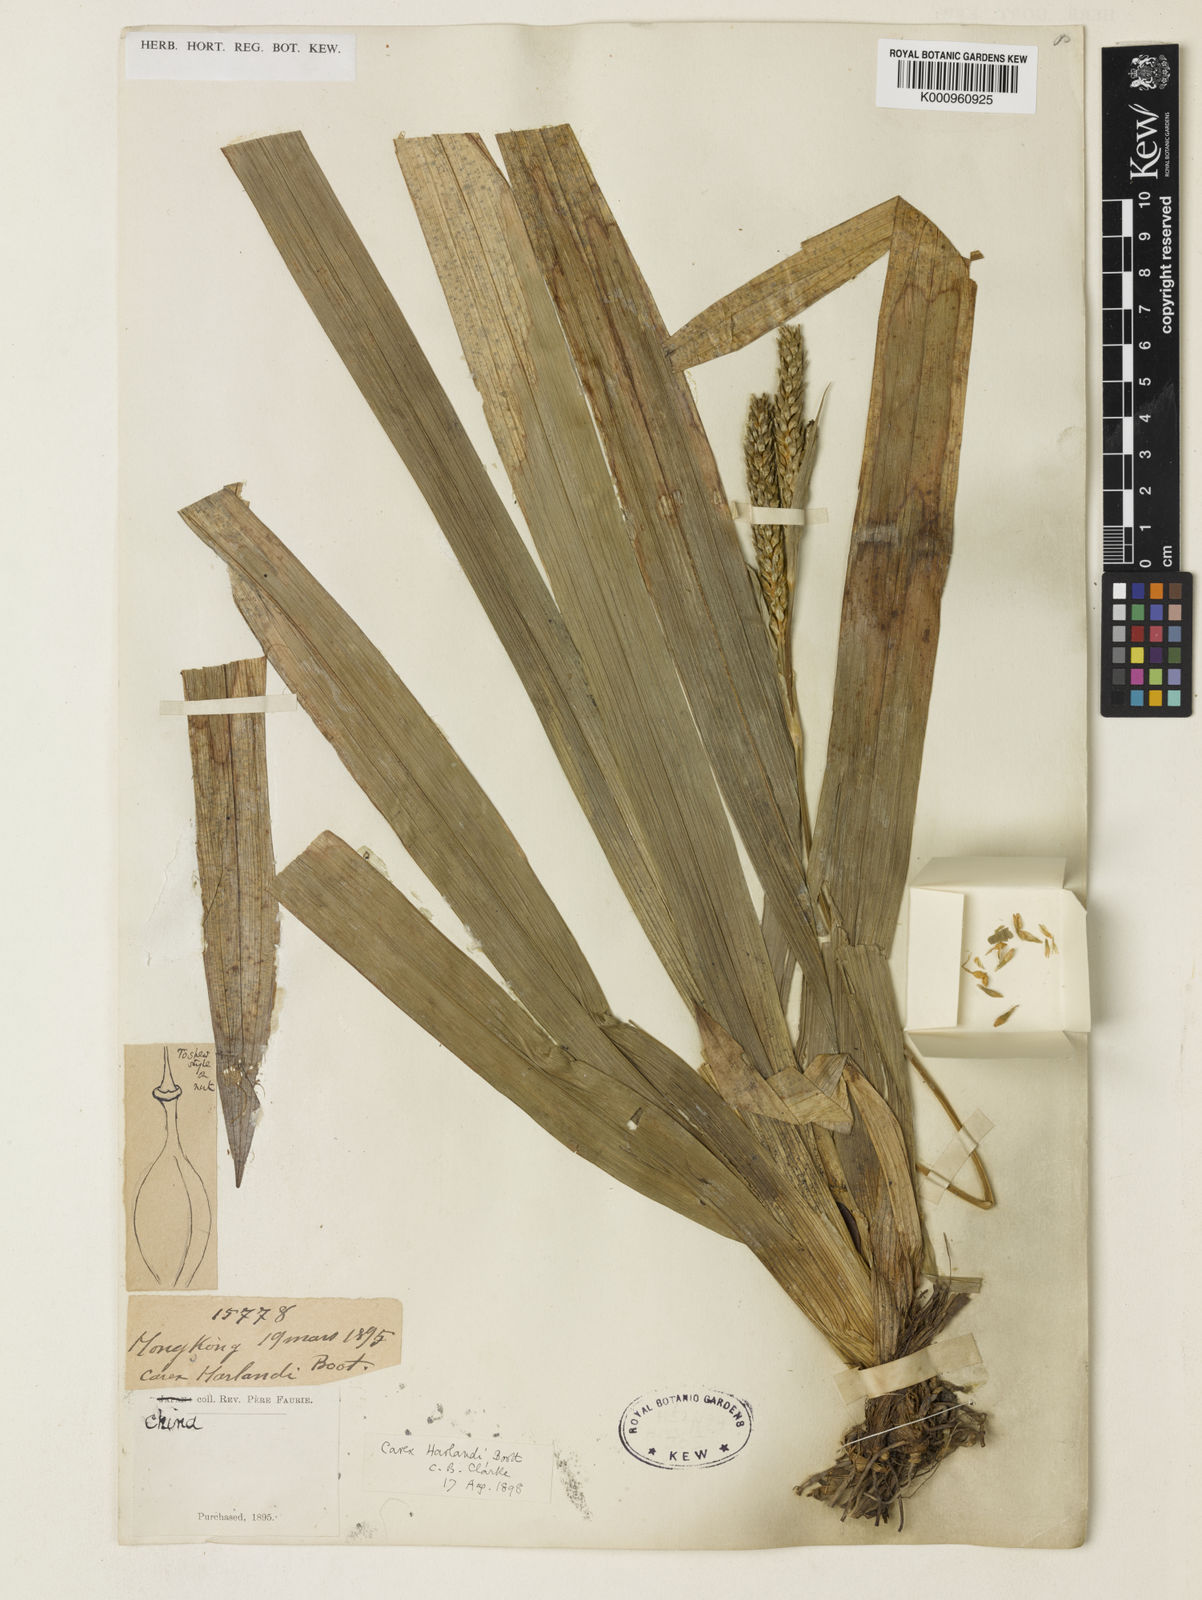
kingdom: Plantae
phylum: Tracheophyta
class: Liliopsida
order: Poales
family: Cyperaceae
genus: Carex
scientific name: Carex harlandii
